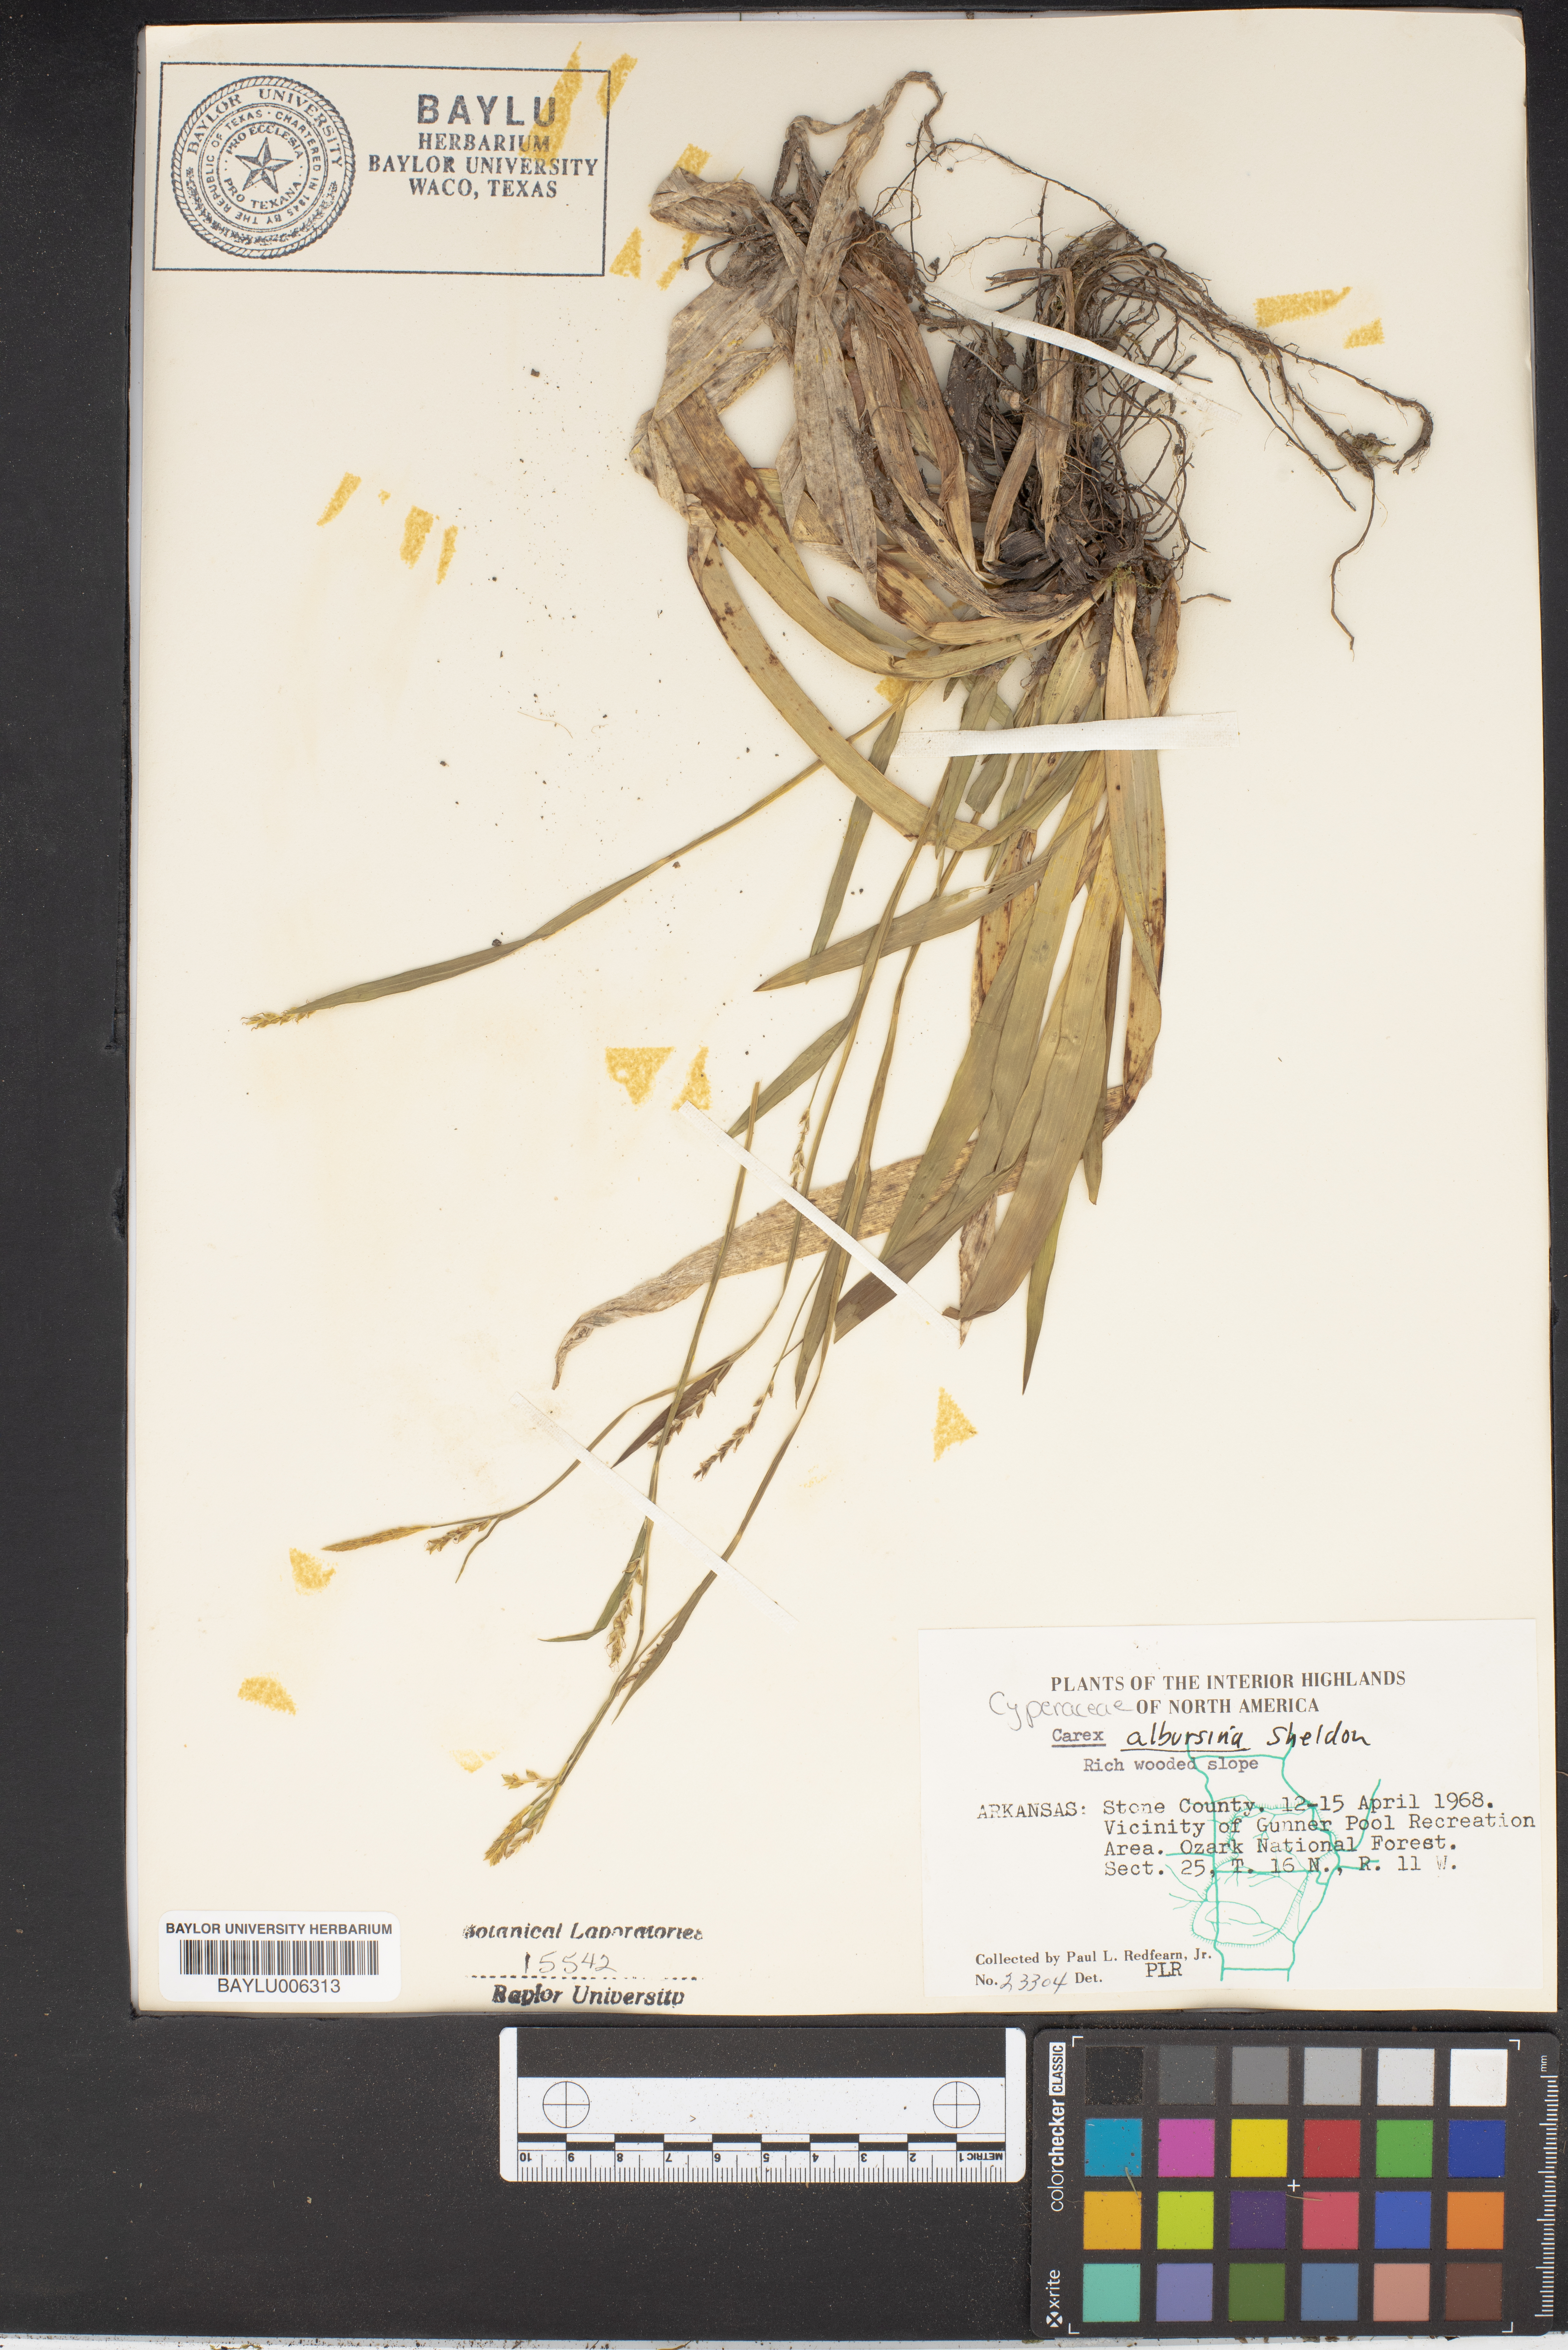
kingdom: Plantae
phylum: Tracheophyta
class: Liliopsida
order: Poales
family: Cyperaceae
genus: Carex
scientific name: Carex albursina
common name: Blunt-scale wood sedge
